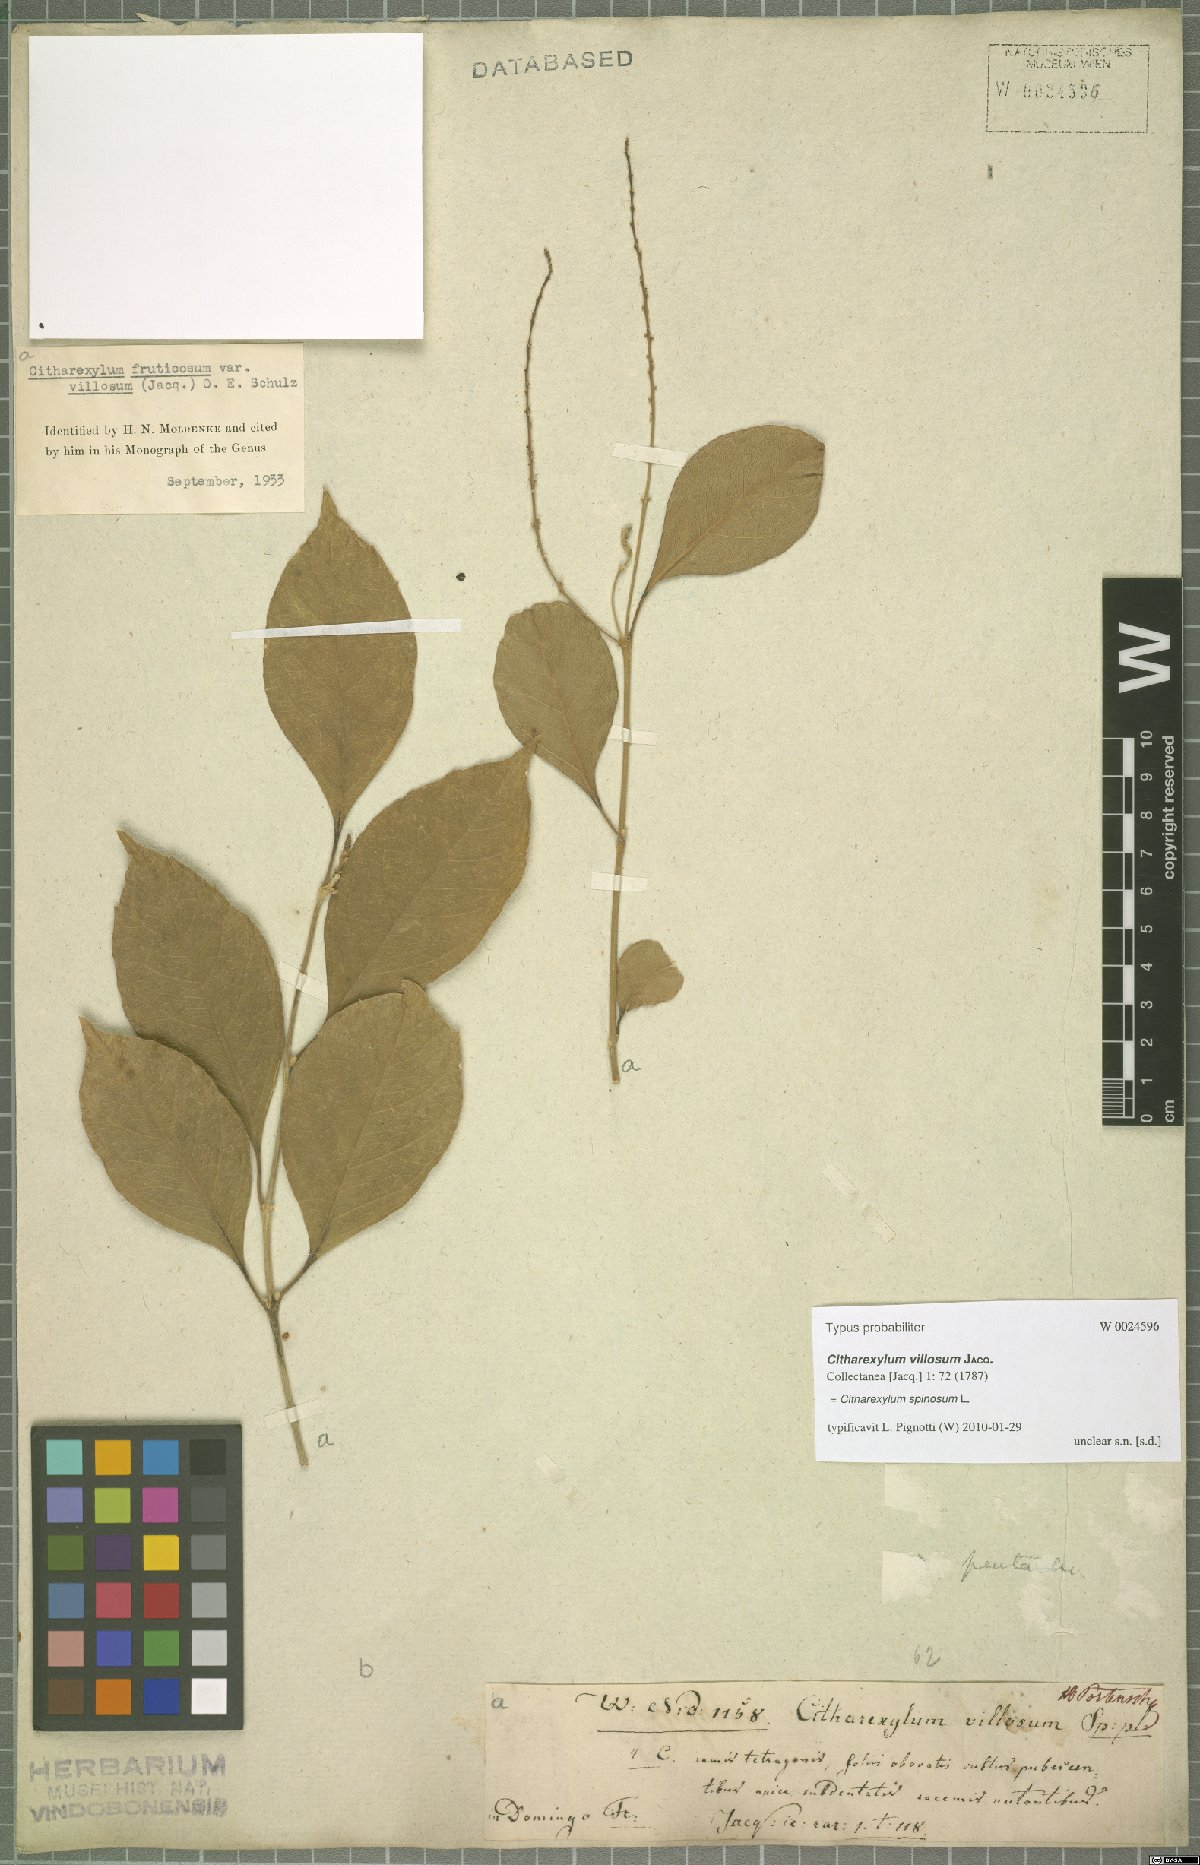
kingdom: Plantae
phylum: Tracheophyta
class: Magnoliopsida
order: Lamiales
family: Verbenaceae
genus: Citharexylum
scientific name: Citharexylum spinosum
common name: Fiddlewood
